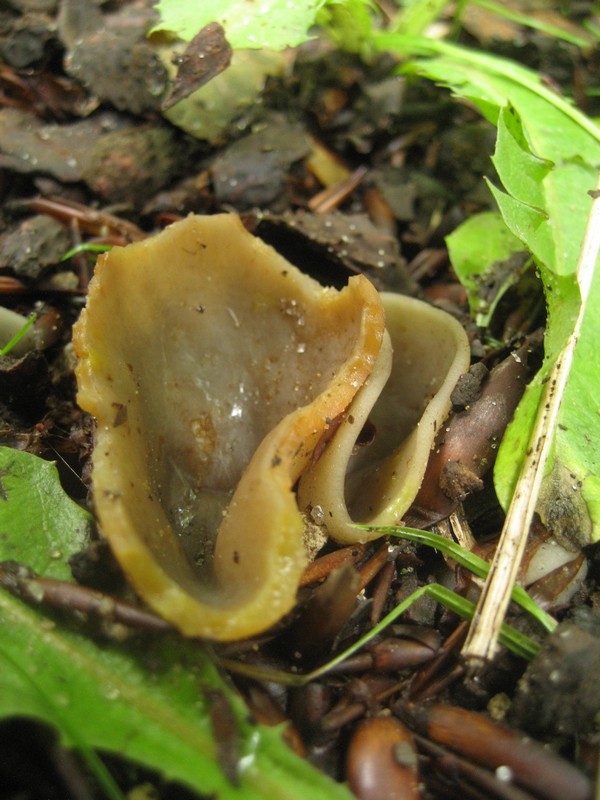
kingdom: Fungi
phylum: Ascomycota
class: Pezizomycetes
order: Pezizales
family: Pezizaceae
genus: Paragalactinia
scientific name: Paragalactinia succosa
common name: gulmælket bægersvamp
